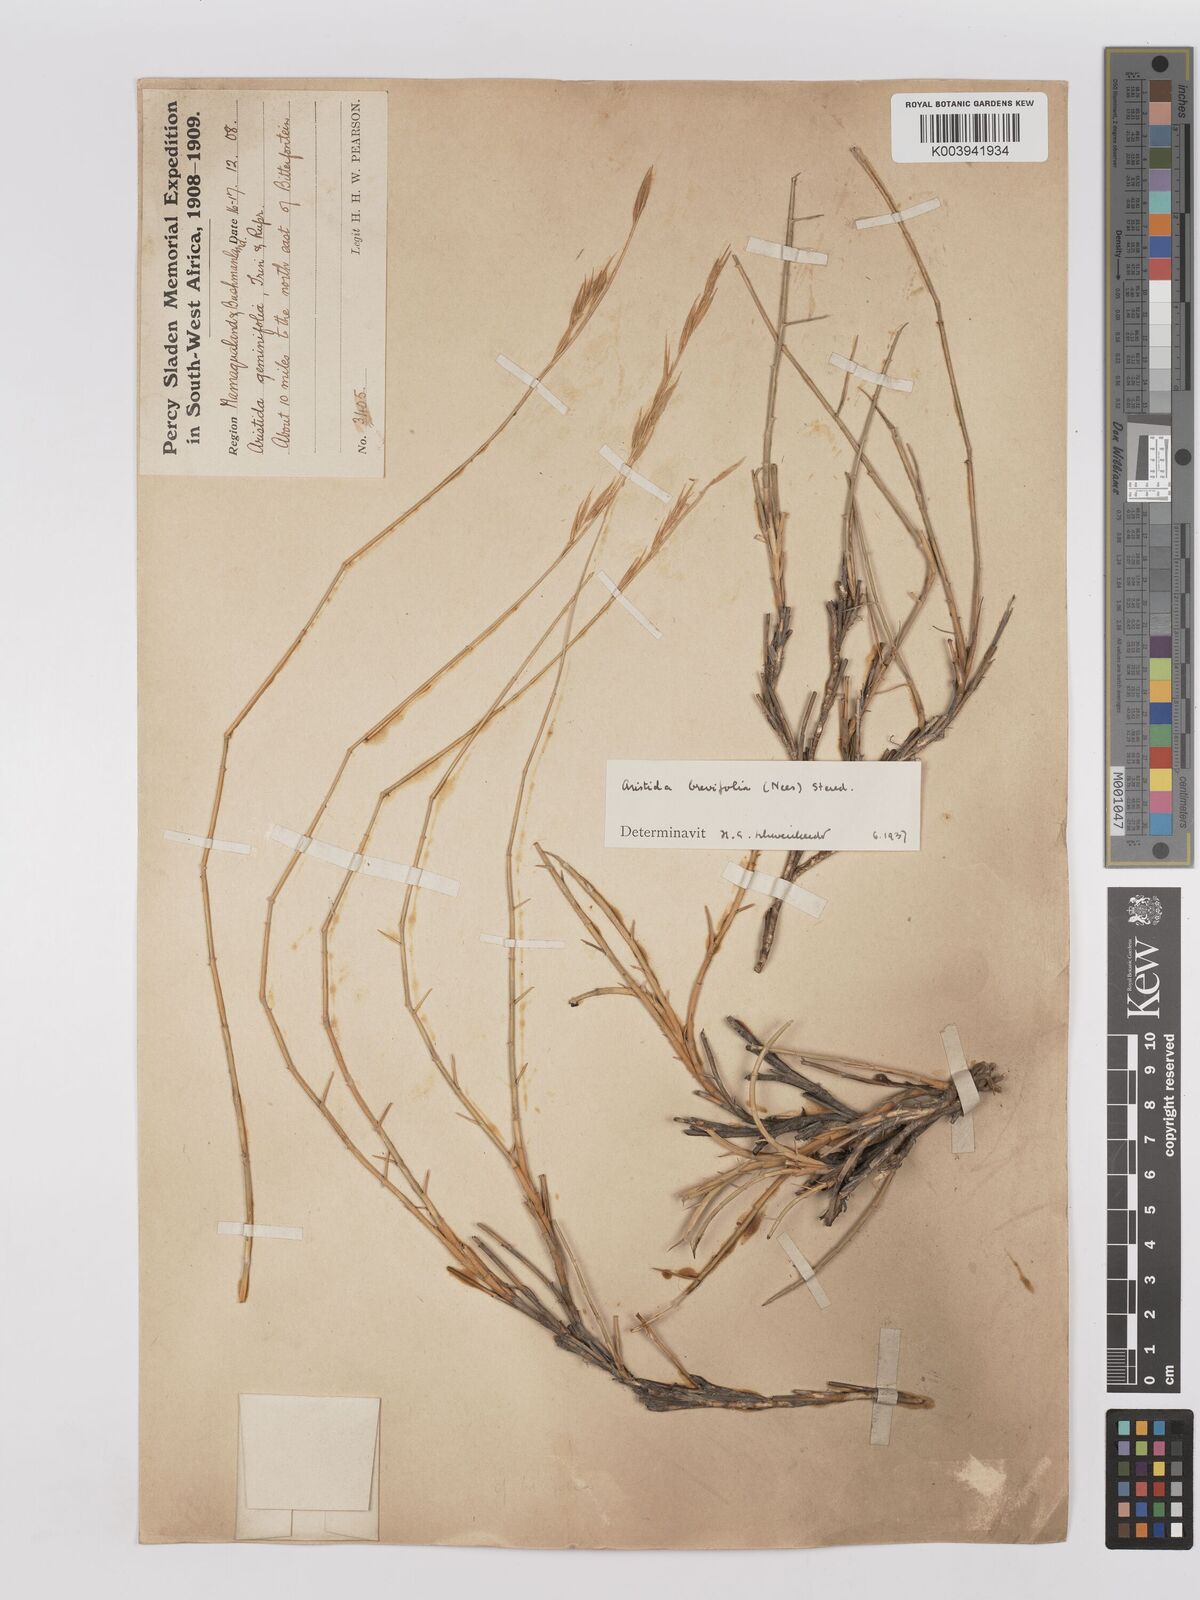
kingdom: Plantae
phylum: Tracheophyta
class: Liliopsida
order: Poales
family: Poaceae
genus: Stipagrostis
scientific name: Stipagrostis brevifolia
